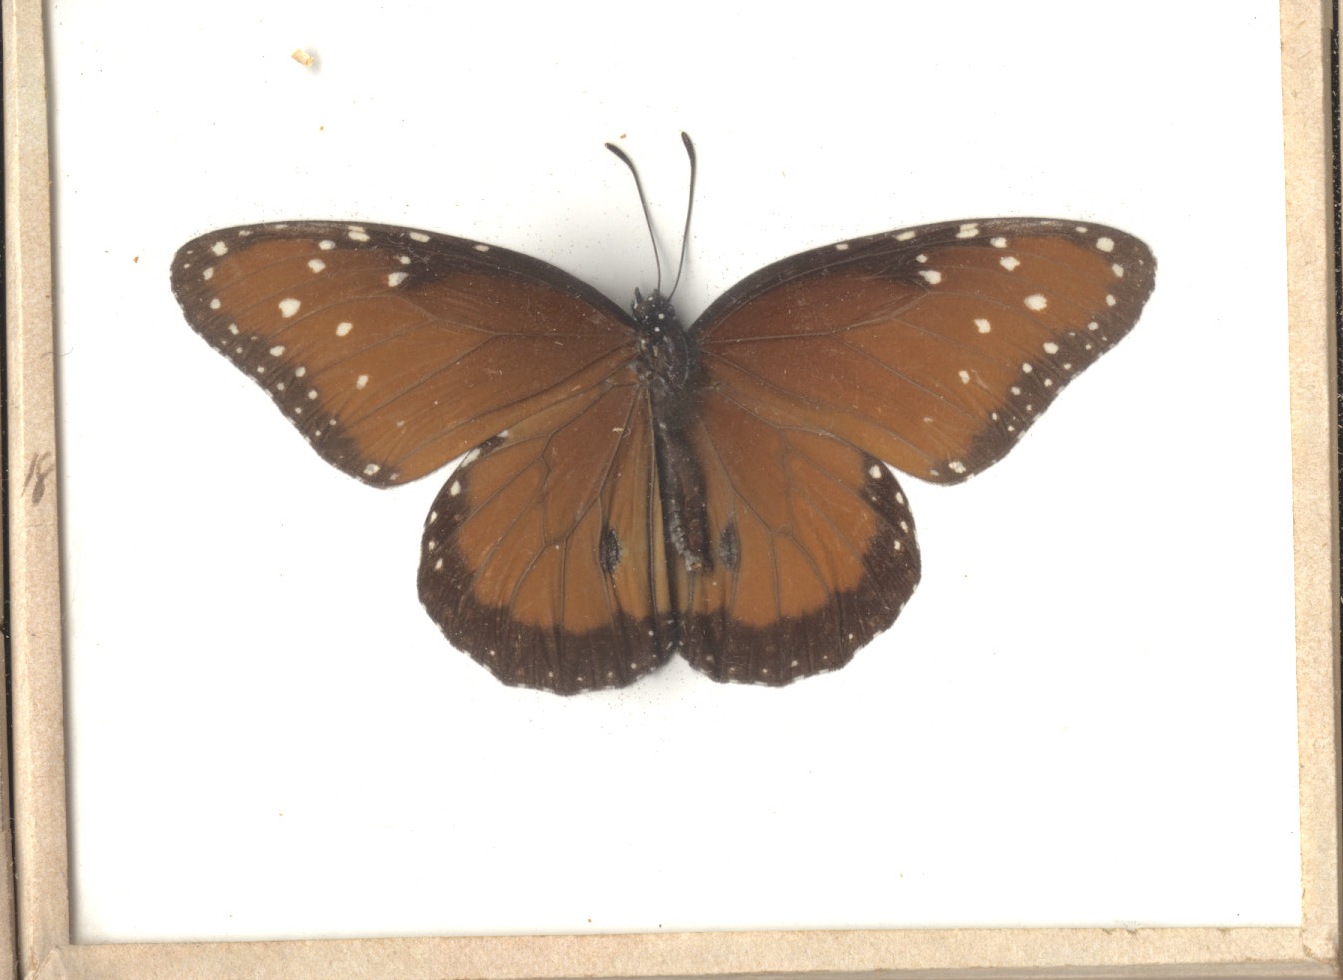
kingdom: Animalia
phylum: Arthropoda
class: Insecta
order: Lepidoptera
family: Nymphalidae
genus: Danaus
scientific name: Danaus gilippus
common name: Queen
